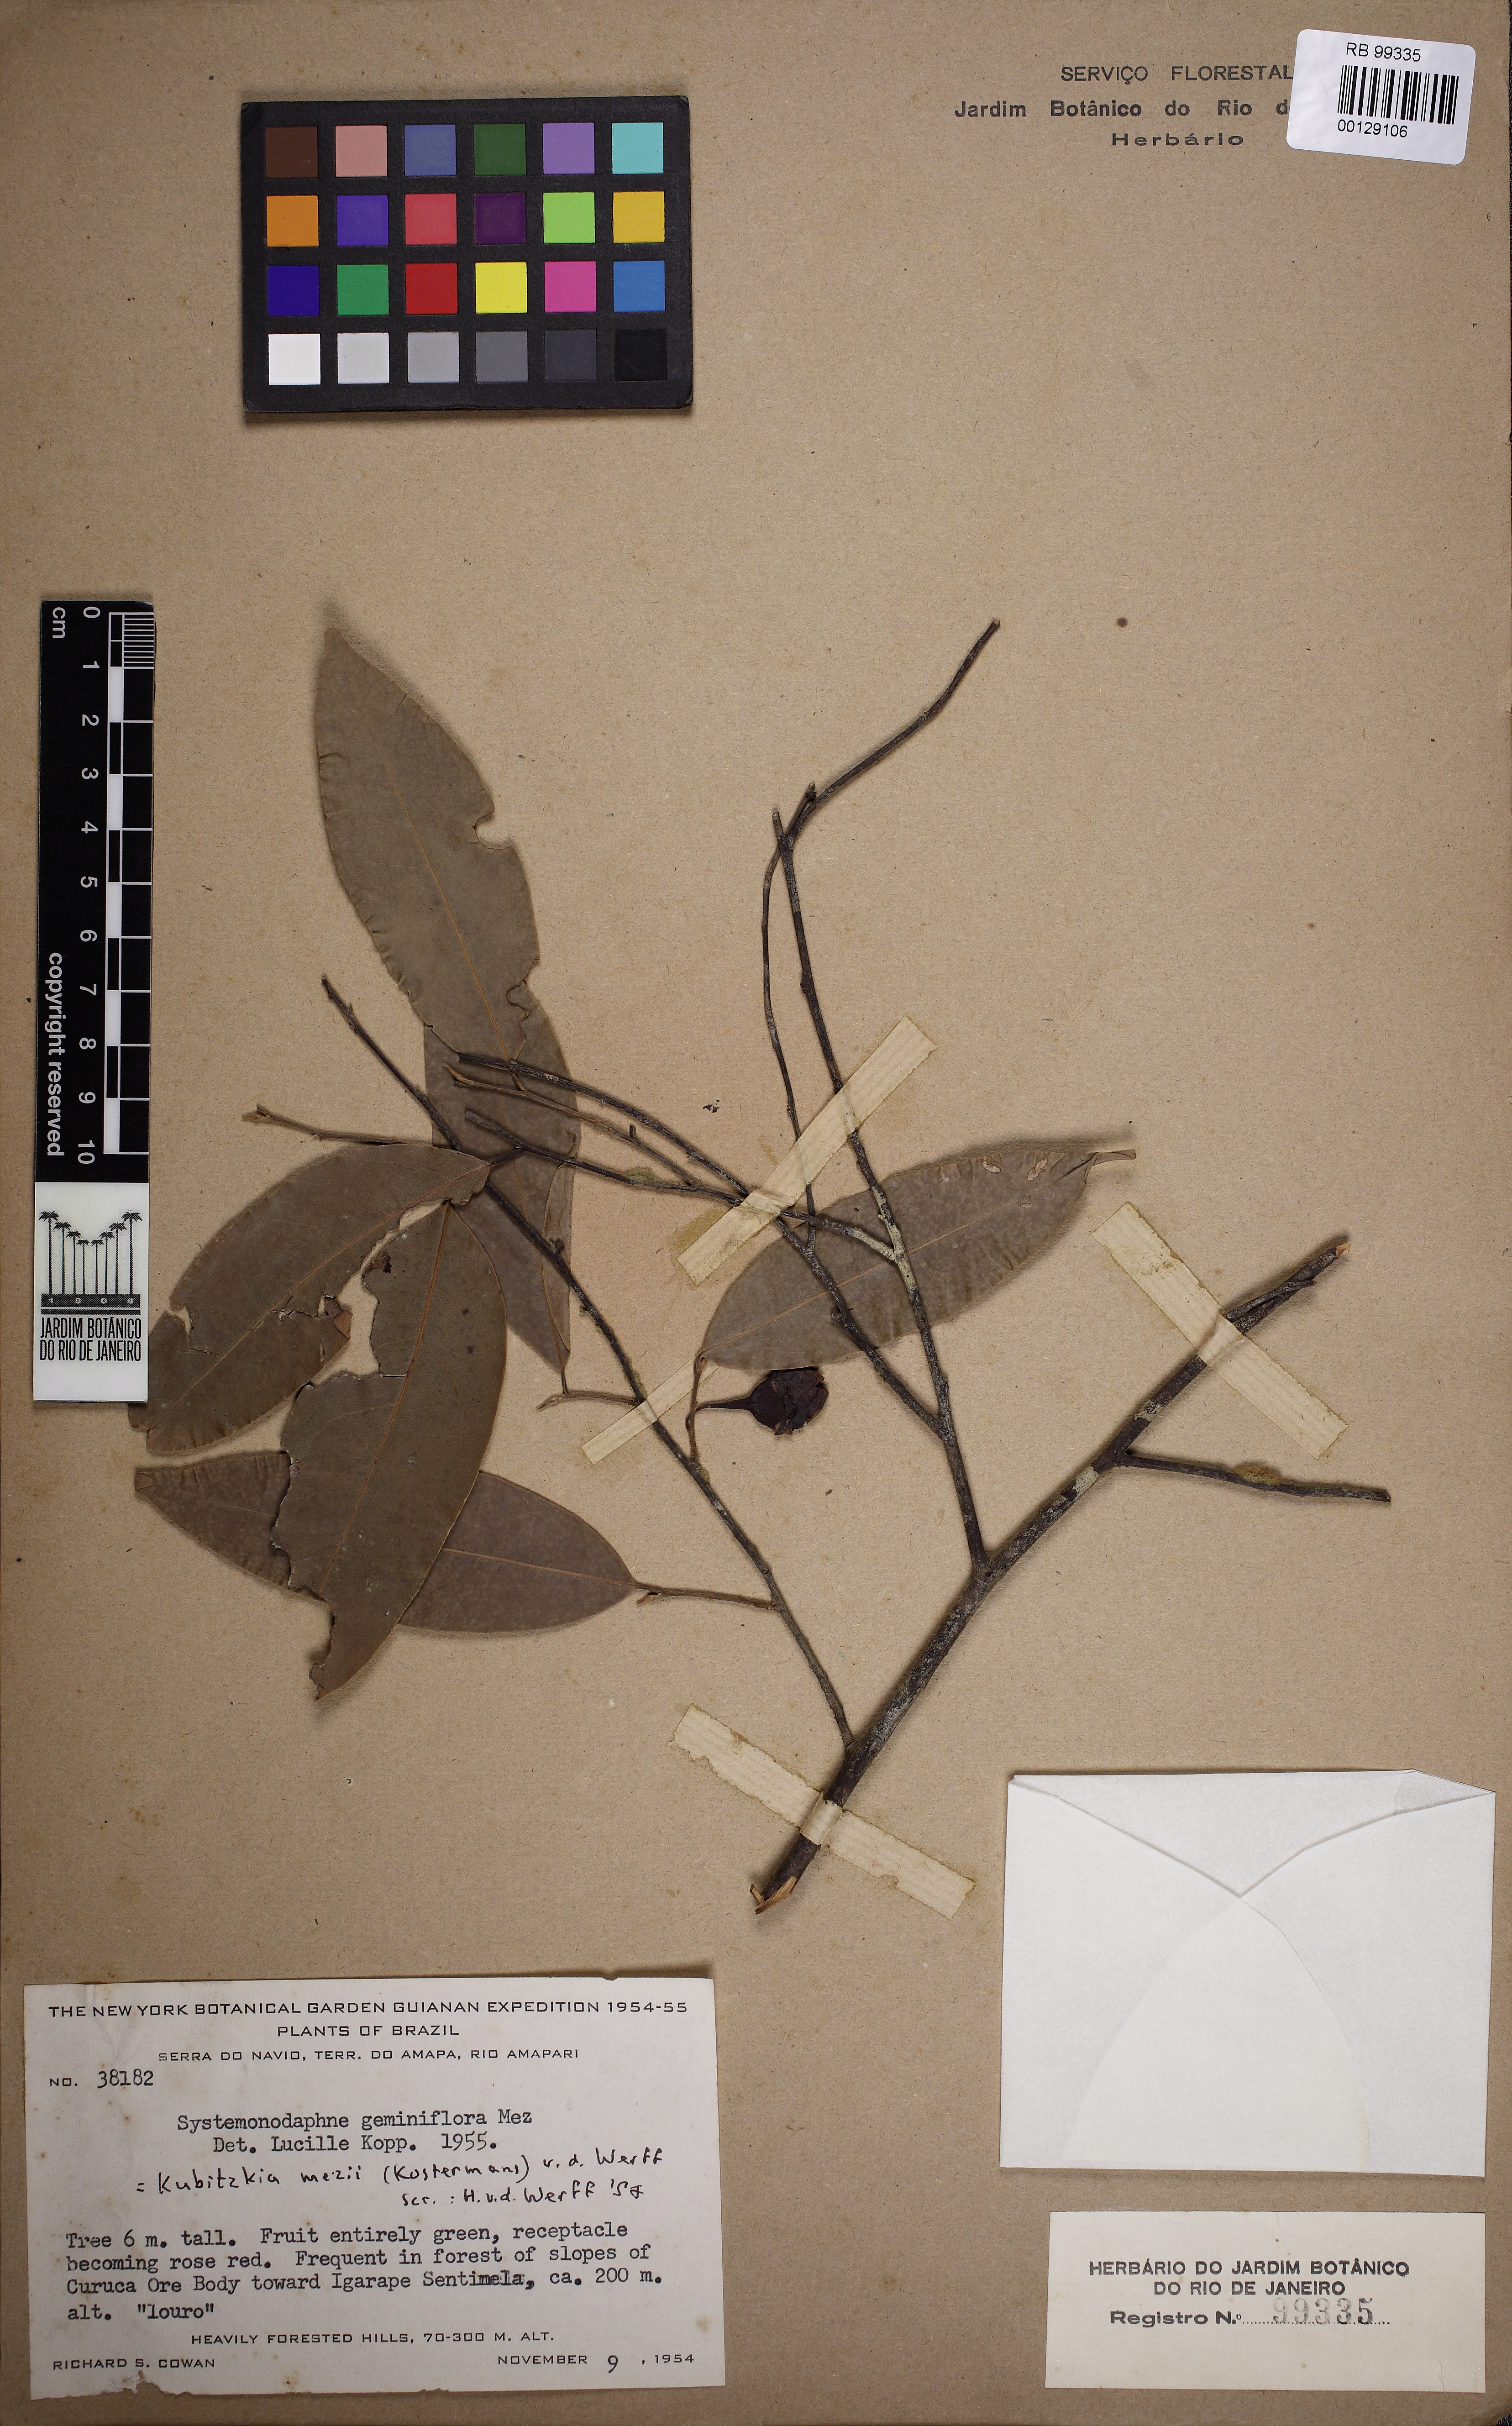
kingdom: Plantae
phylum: Tracheophyta
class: Magnoliopsida
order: Laurales
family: Lauraceae
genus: Kubitzkia
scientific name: Kubitzkia mezii
